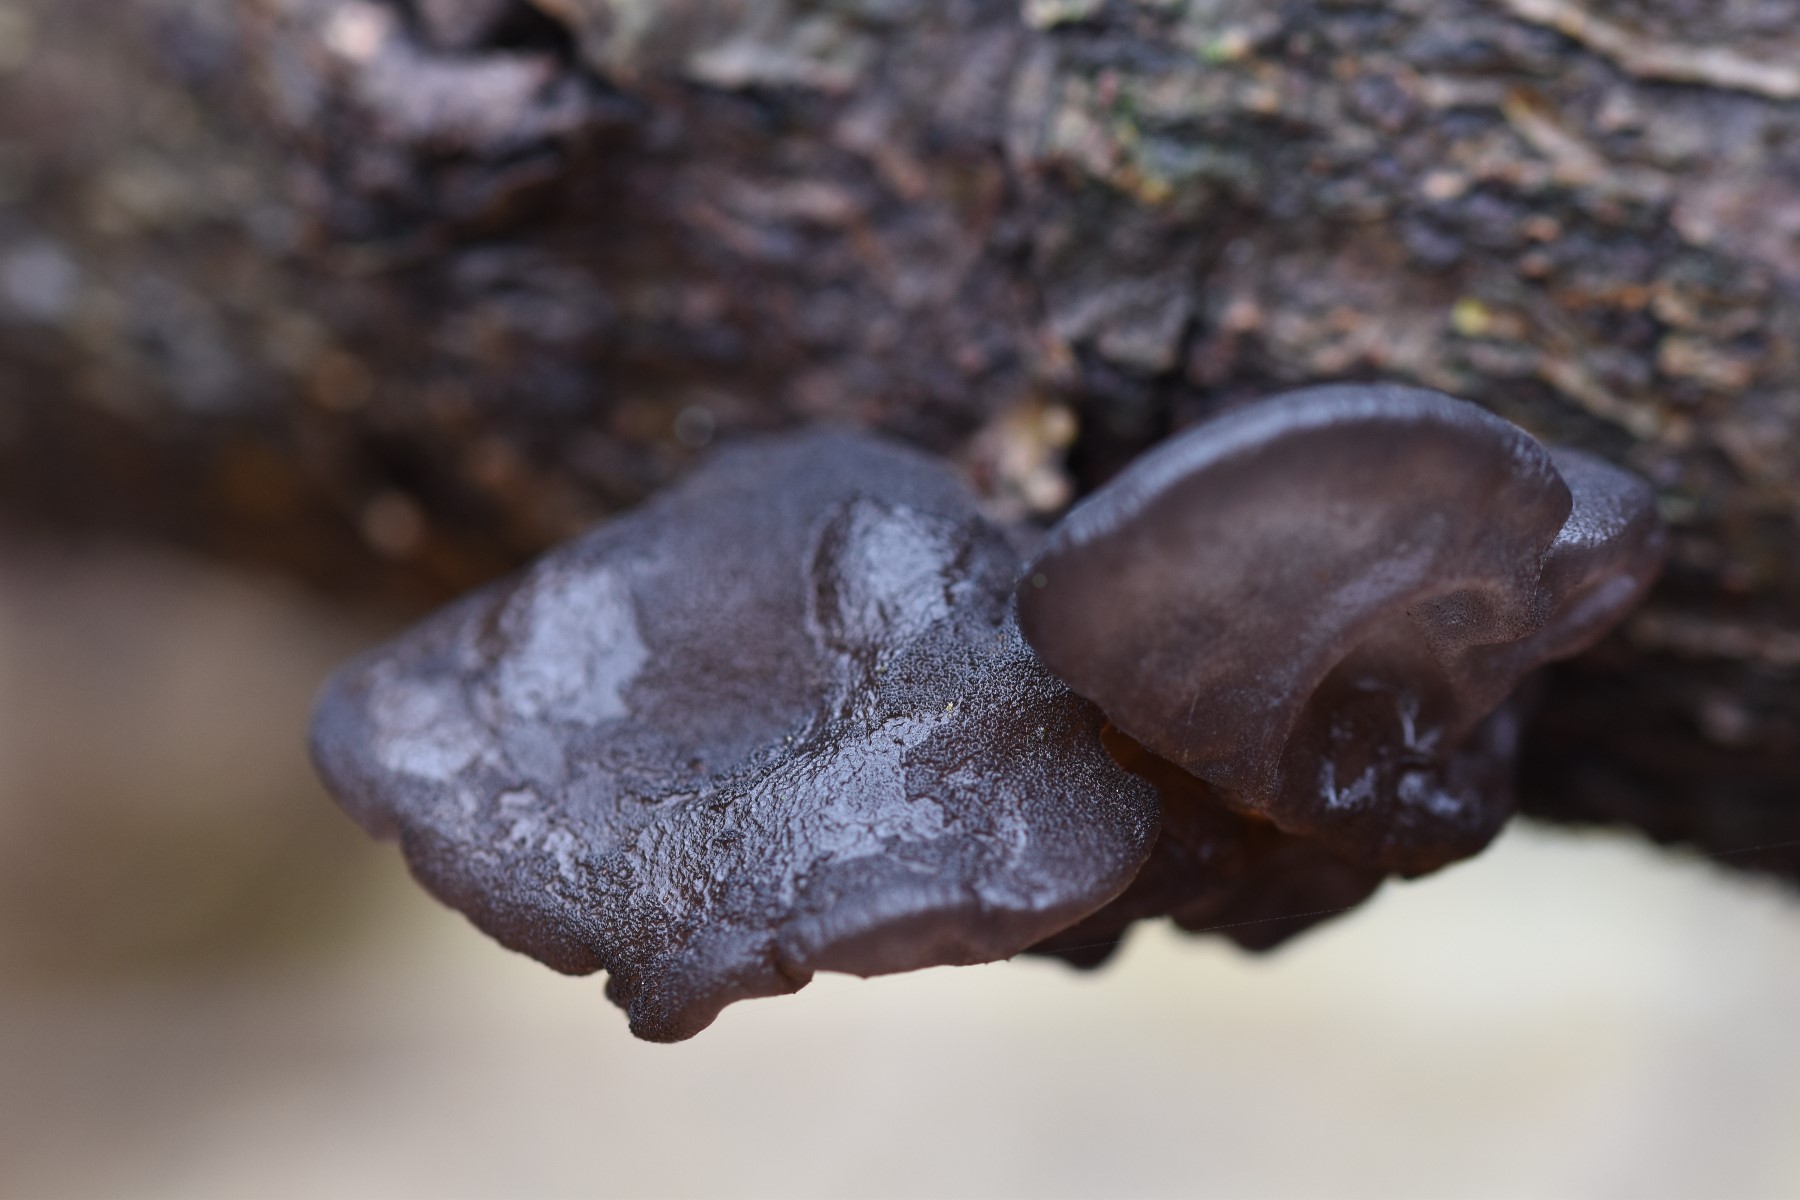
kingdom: Fungi
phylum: Basidiomycota
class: Agaricomycetes
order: Auriculariales
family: Auriculariaceae
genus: Exidia
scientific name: Exidia glandulosa
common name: ege-bævretop
